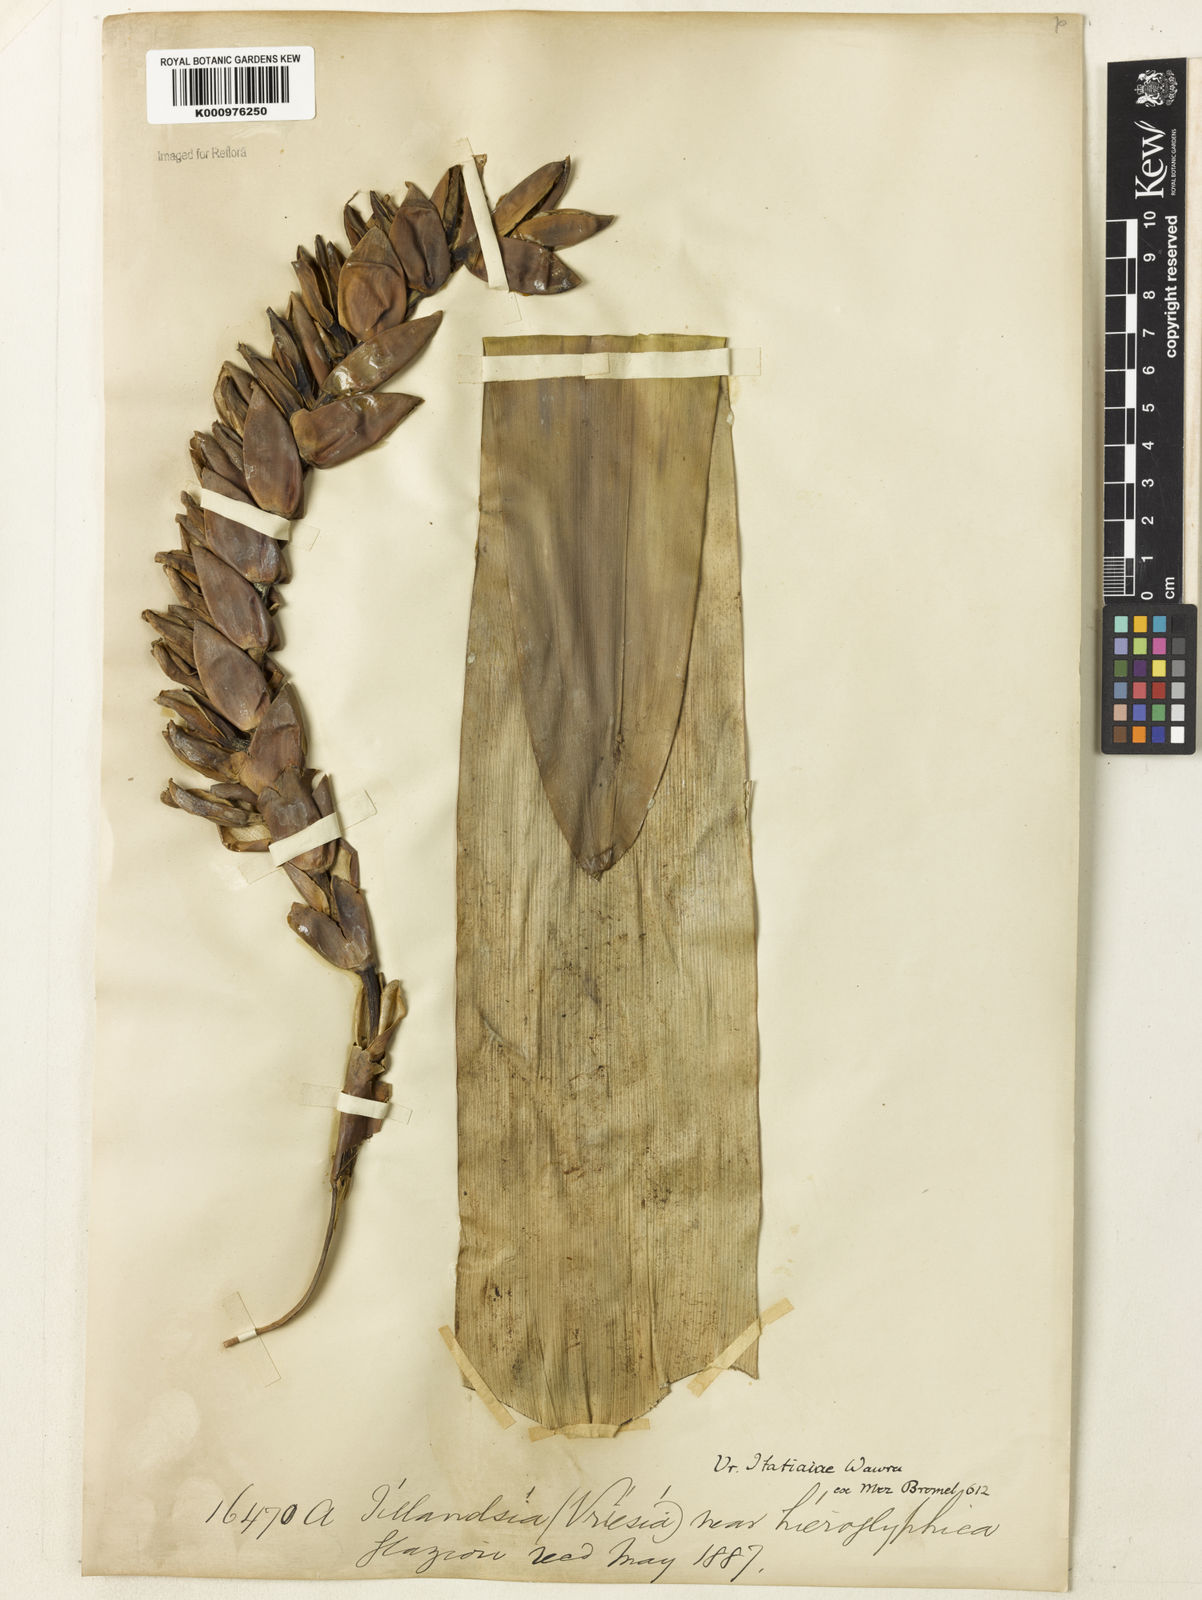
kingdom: Plantae
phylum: Tracheophyta
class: Liliopsida
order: Poales
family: Bromeliaceae
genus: Vriesea
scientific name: Vriesea itatiaiae
